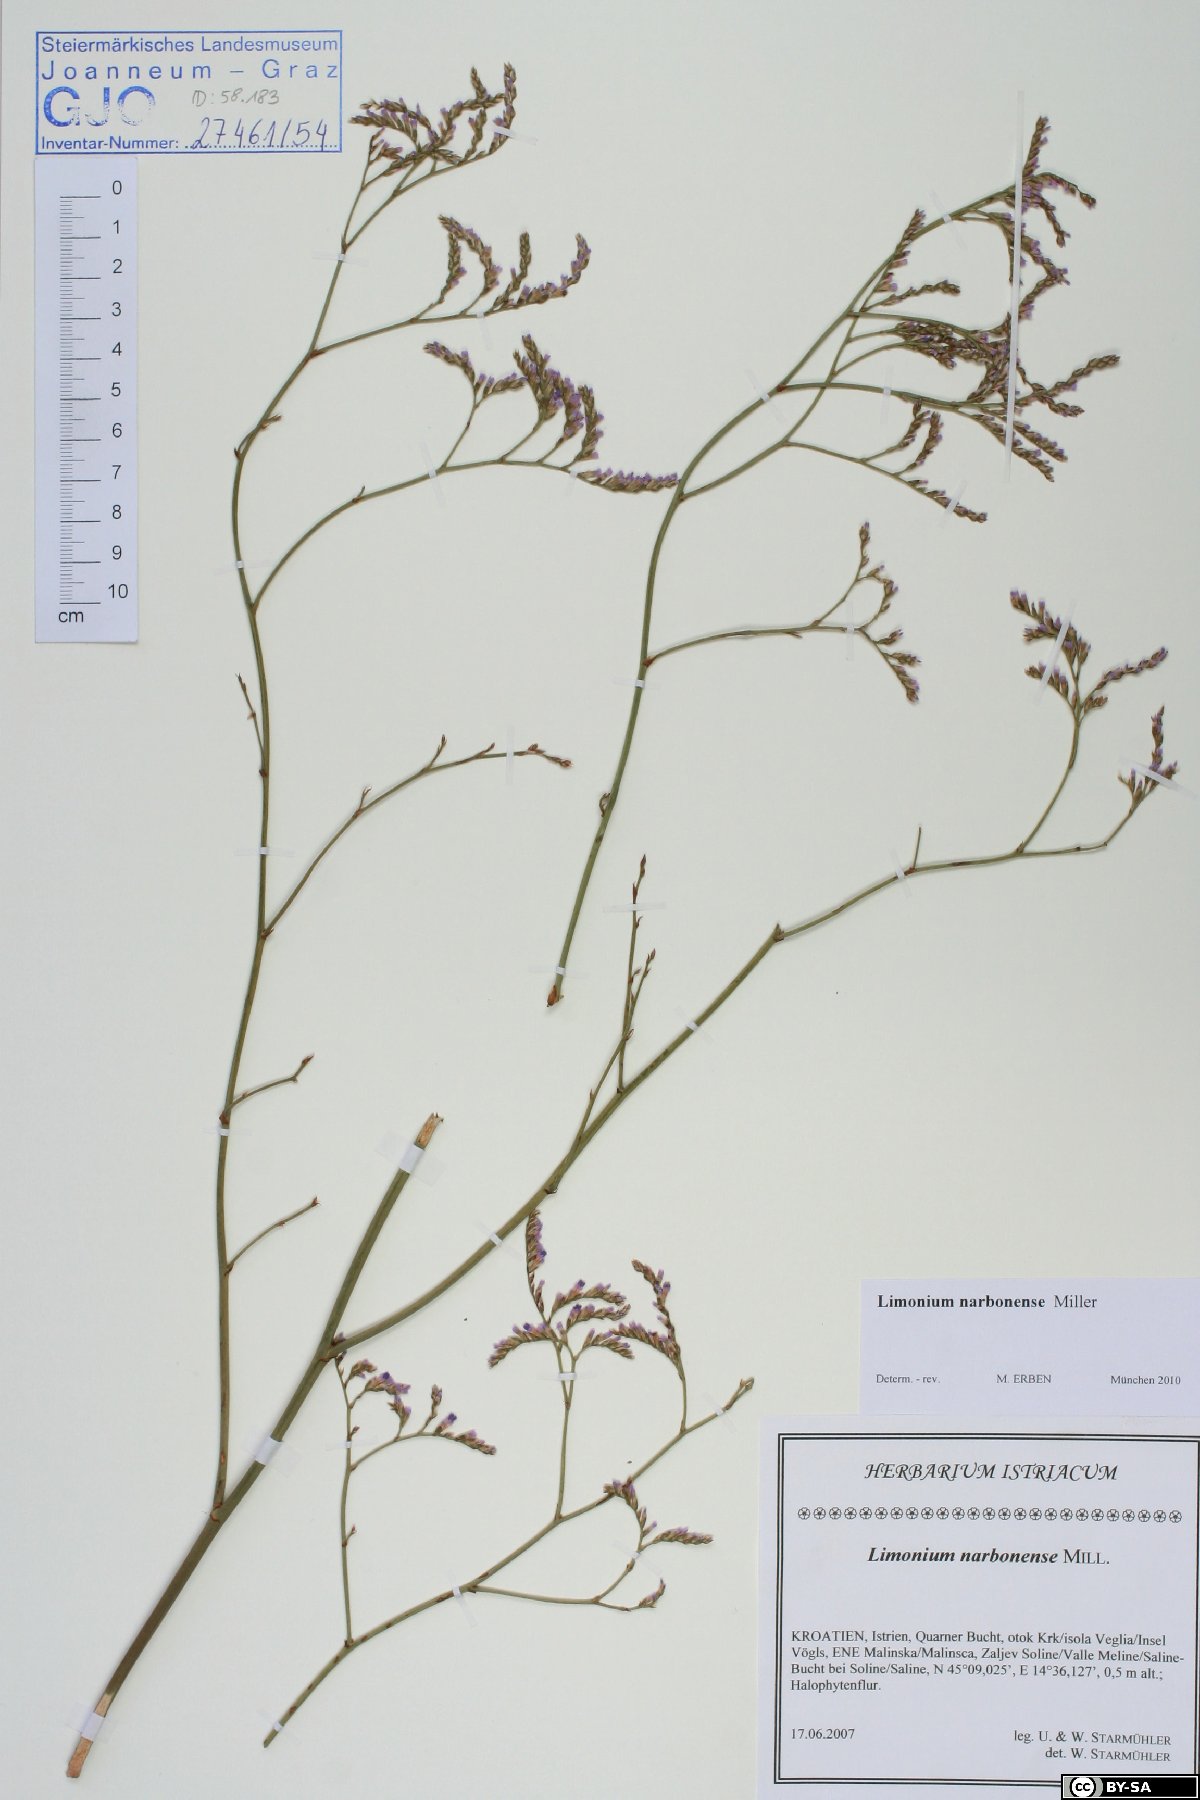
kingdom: Plantae
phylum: Tracheophyta
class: Magnoliopsida
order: Caryophyllales
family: Plumbaginaceae
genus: Limonium
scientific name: Limonium narbonense
